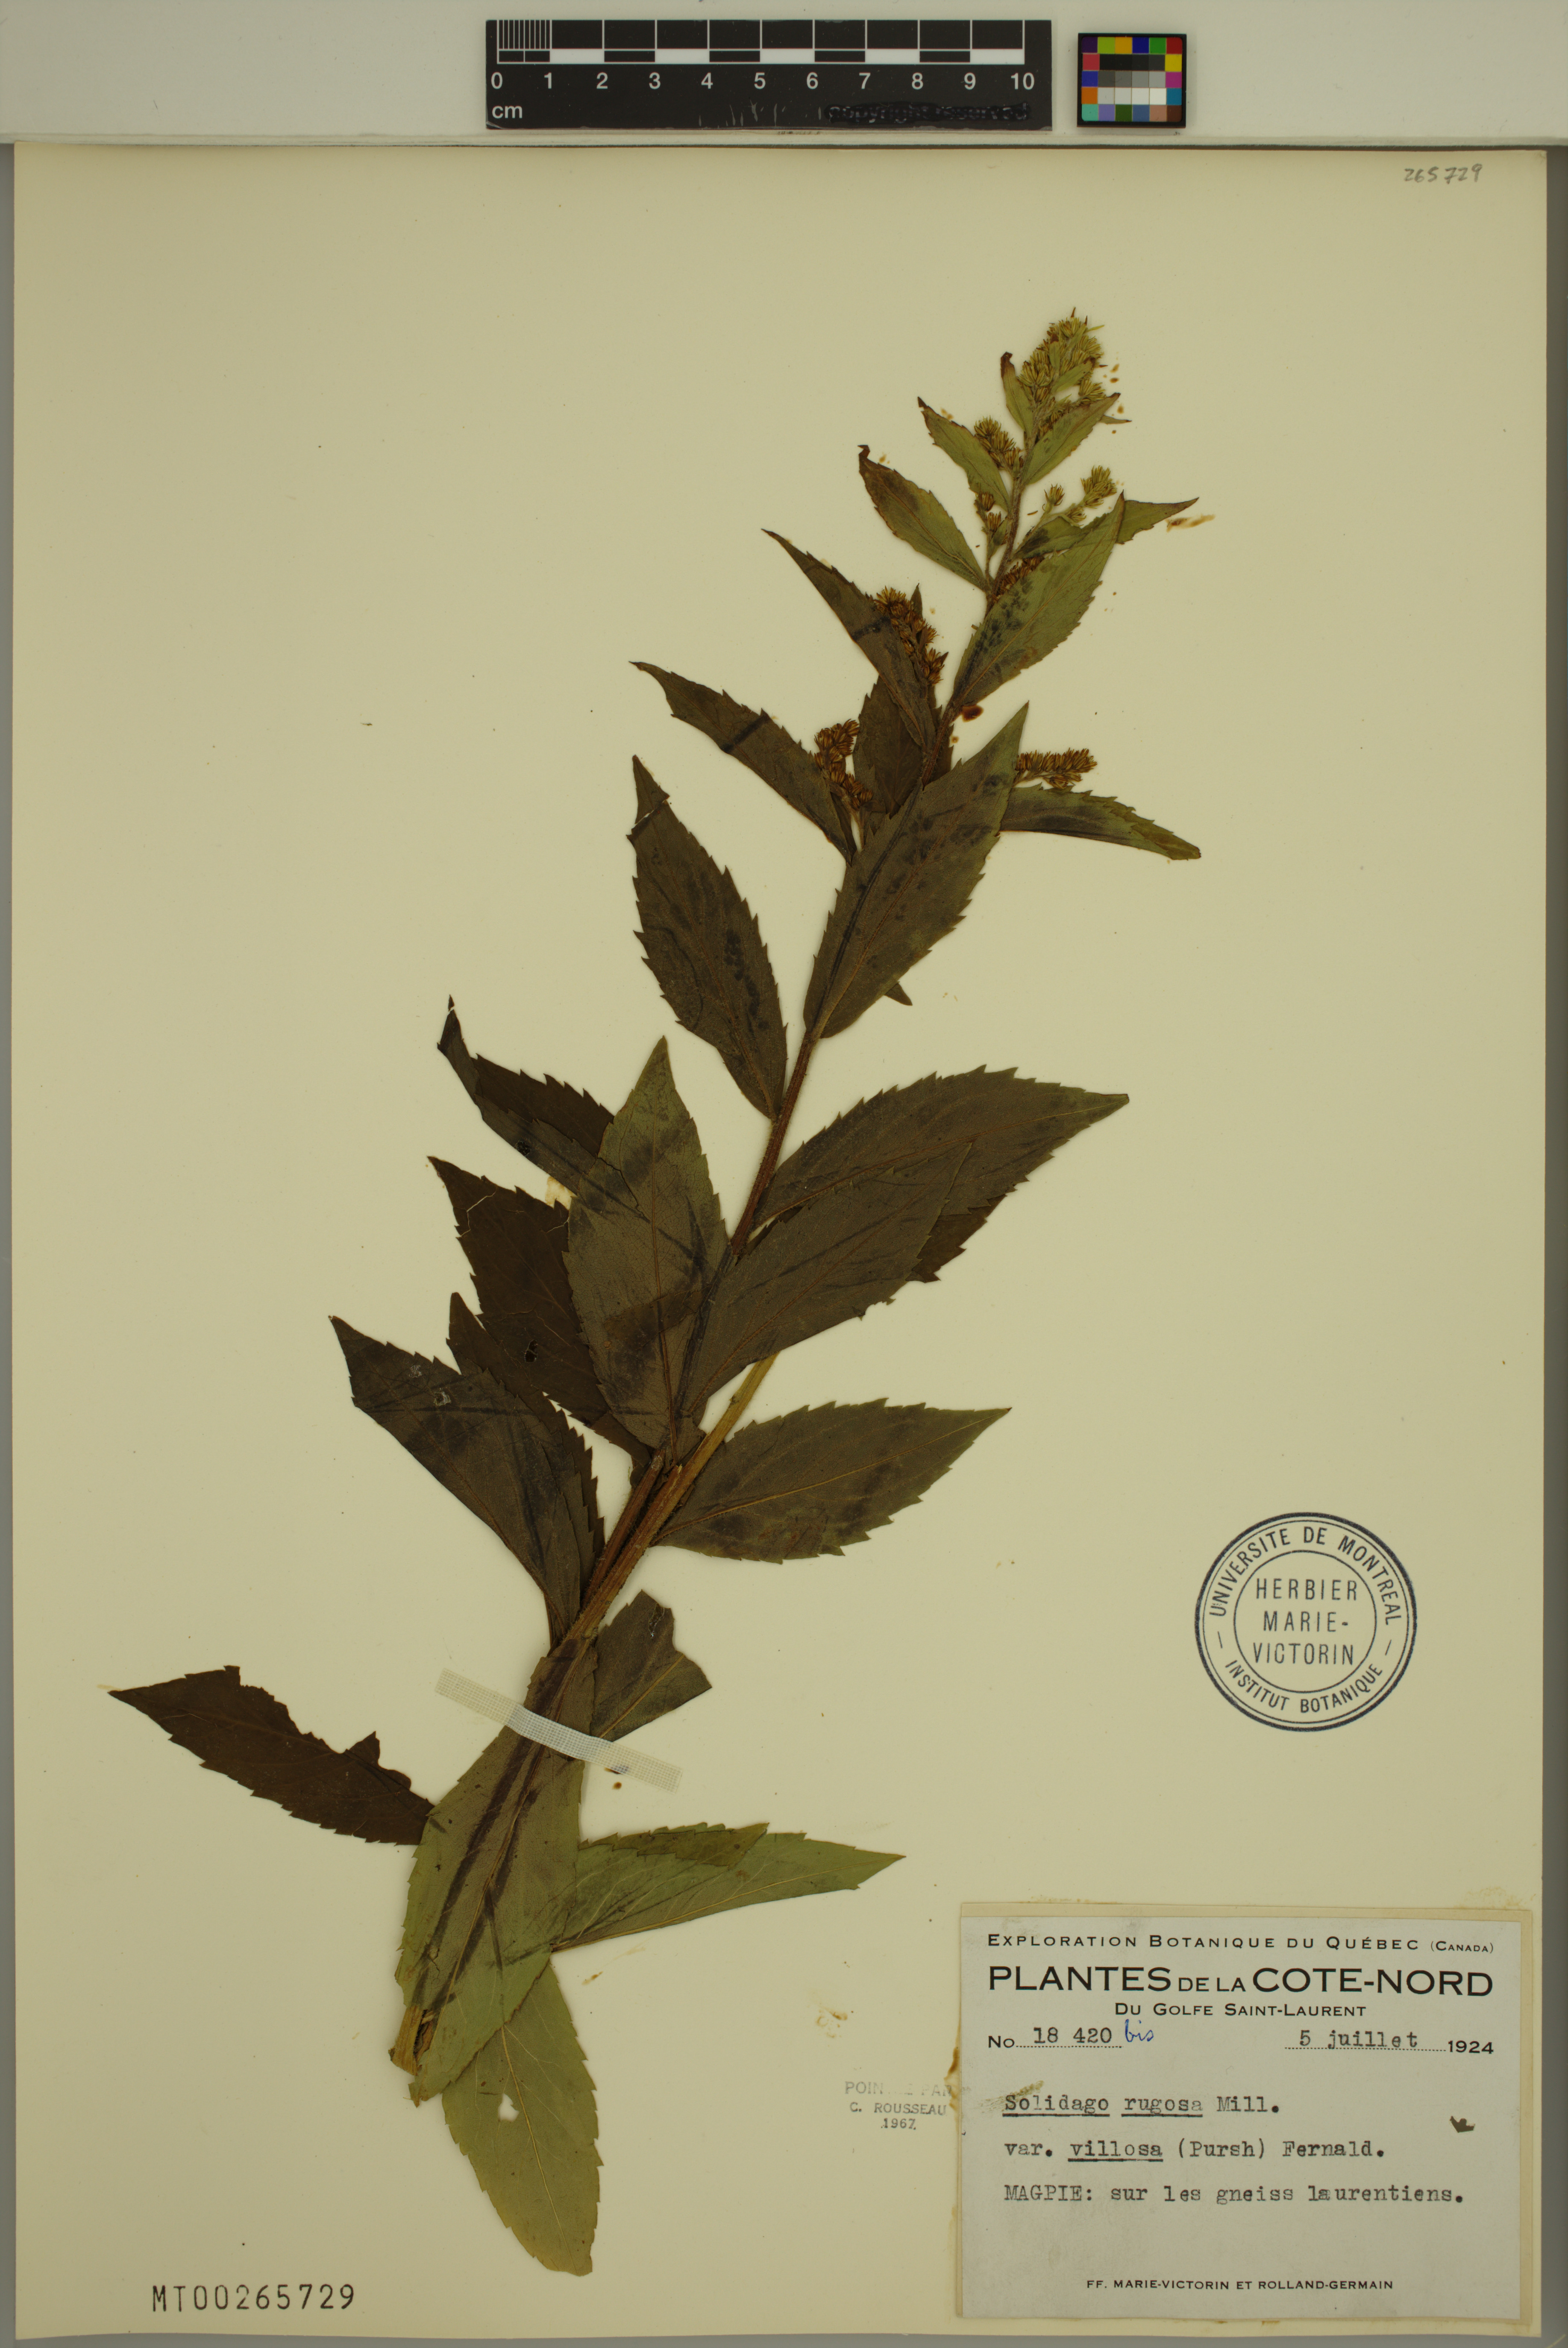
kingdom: Plantae
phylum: Tracheophyta
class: Magnoliopsida
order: Asterales
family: Asteraceae
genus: Solidago
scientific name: Solidago rugosa
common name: Rough-stemmed goldenrod
